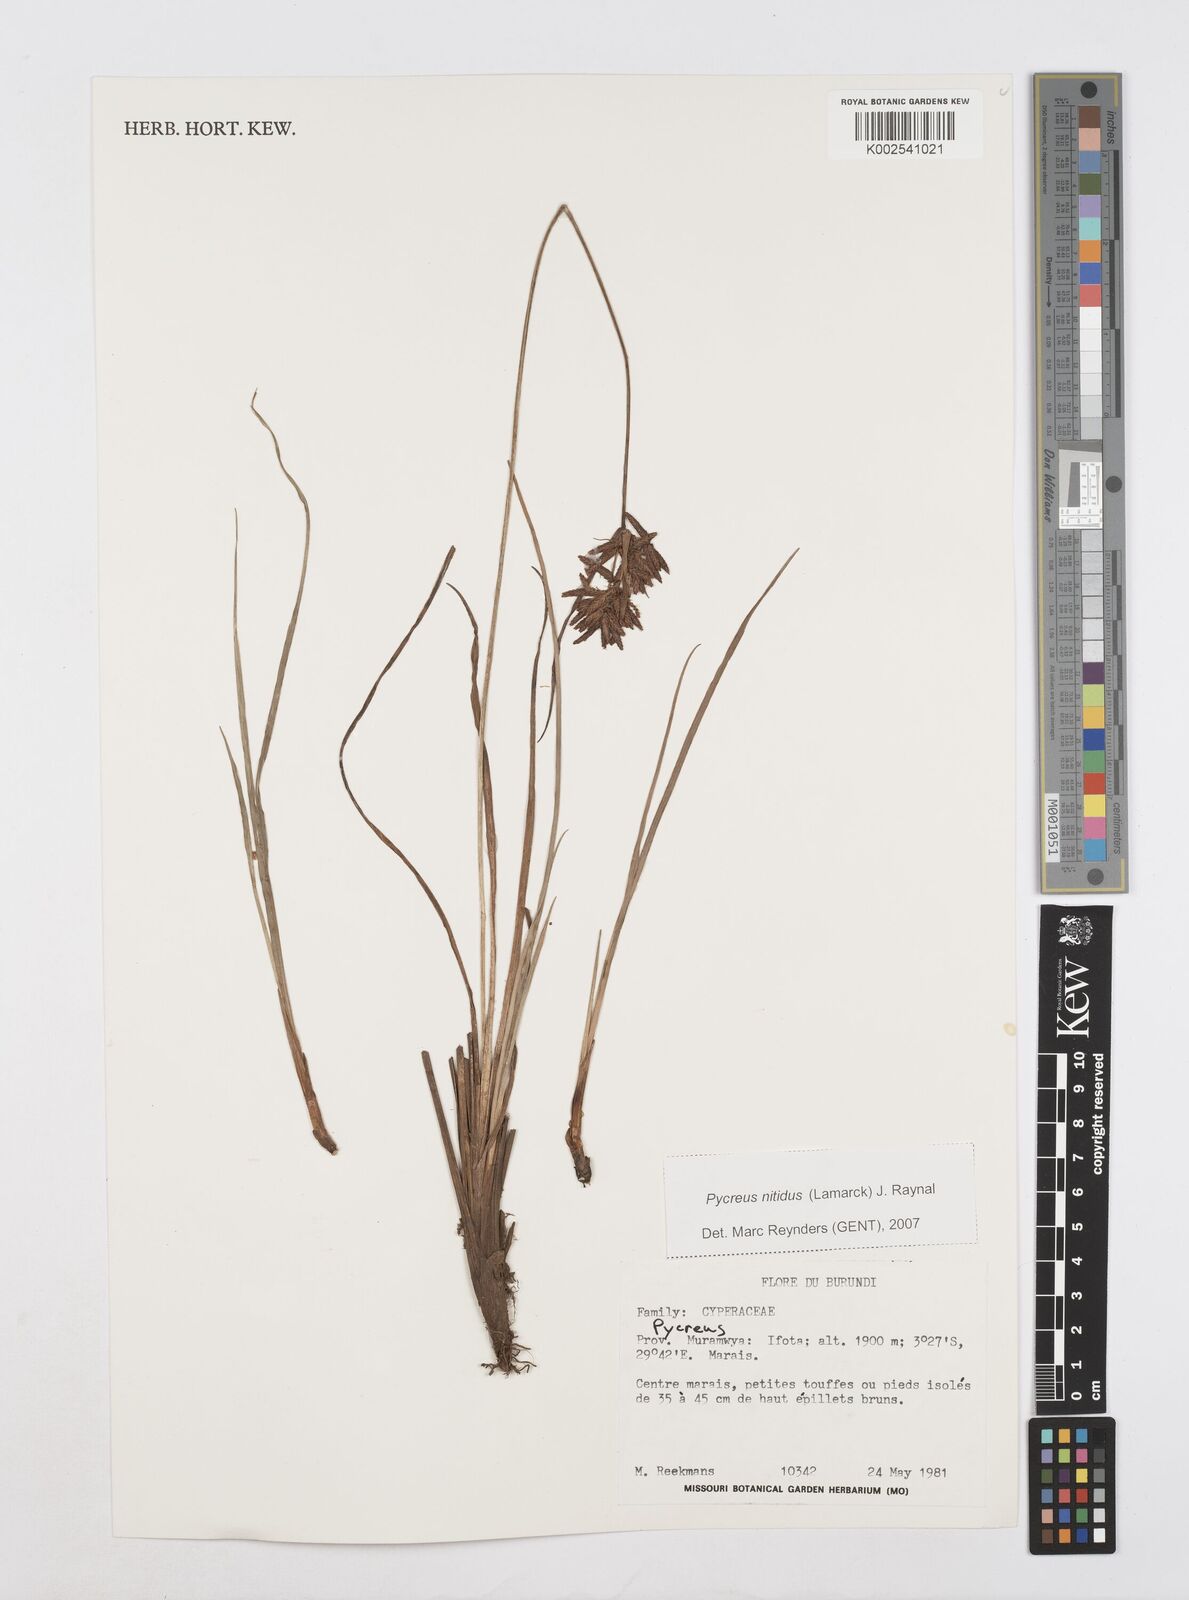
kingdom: Plantae
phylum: Tracheophyta
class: Liliopsida
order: Poales
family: Cyperaceae
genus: Cyperus
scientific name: Cyperus
